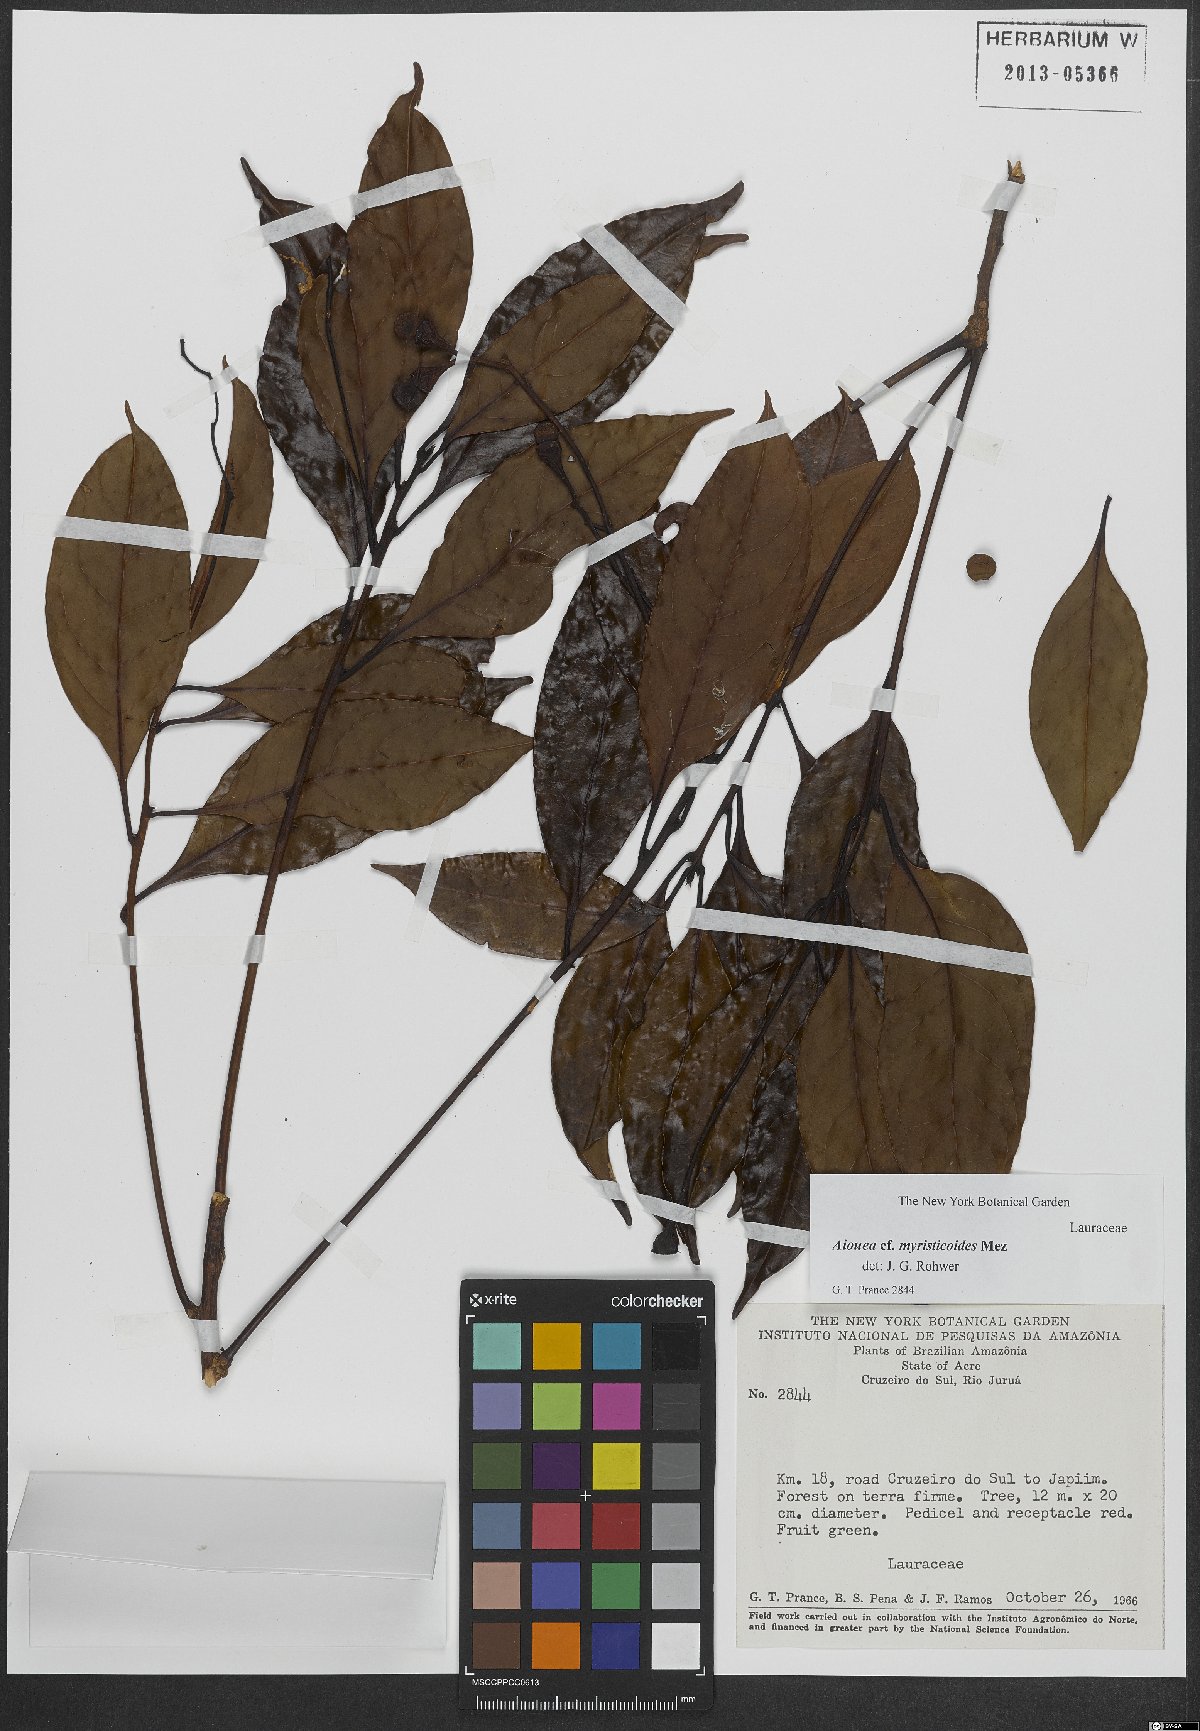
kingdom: Plantae
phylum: Tracheophyta
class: Magnoliopsida
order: Laurales
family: Lauraceae
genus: Aiouea
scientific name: Aiouea myristicoides
